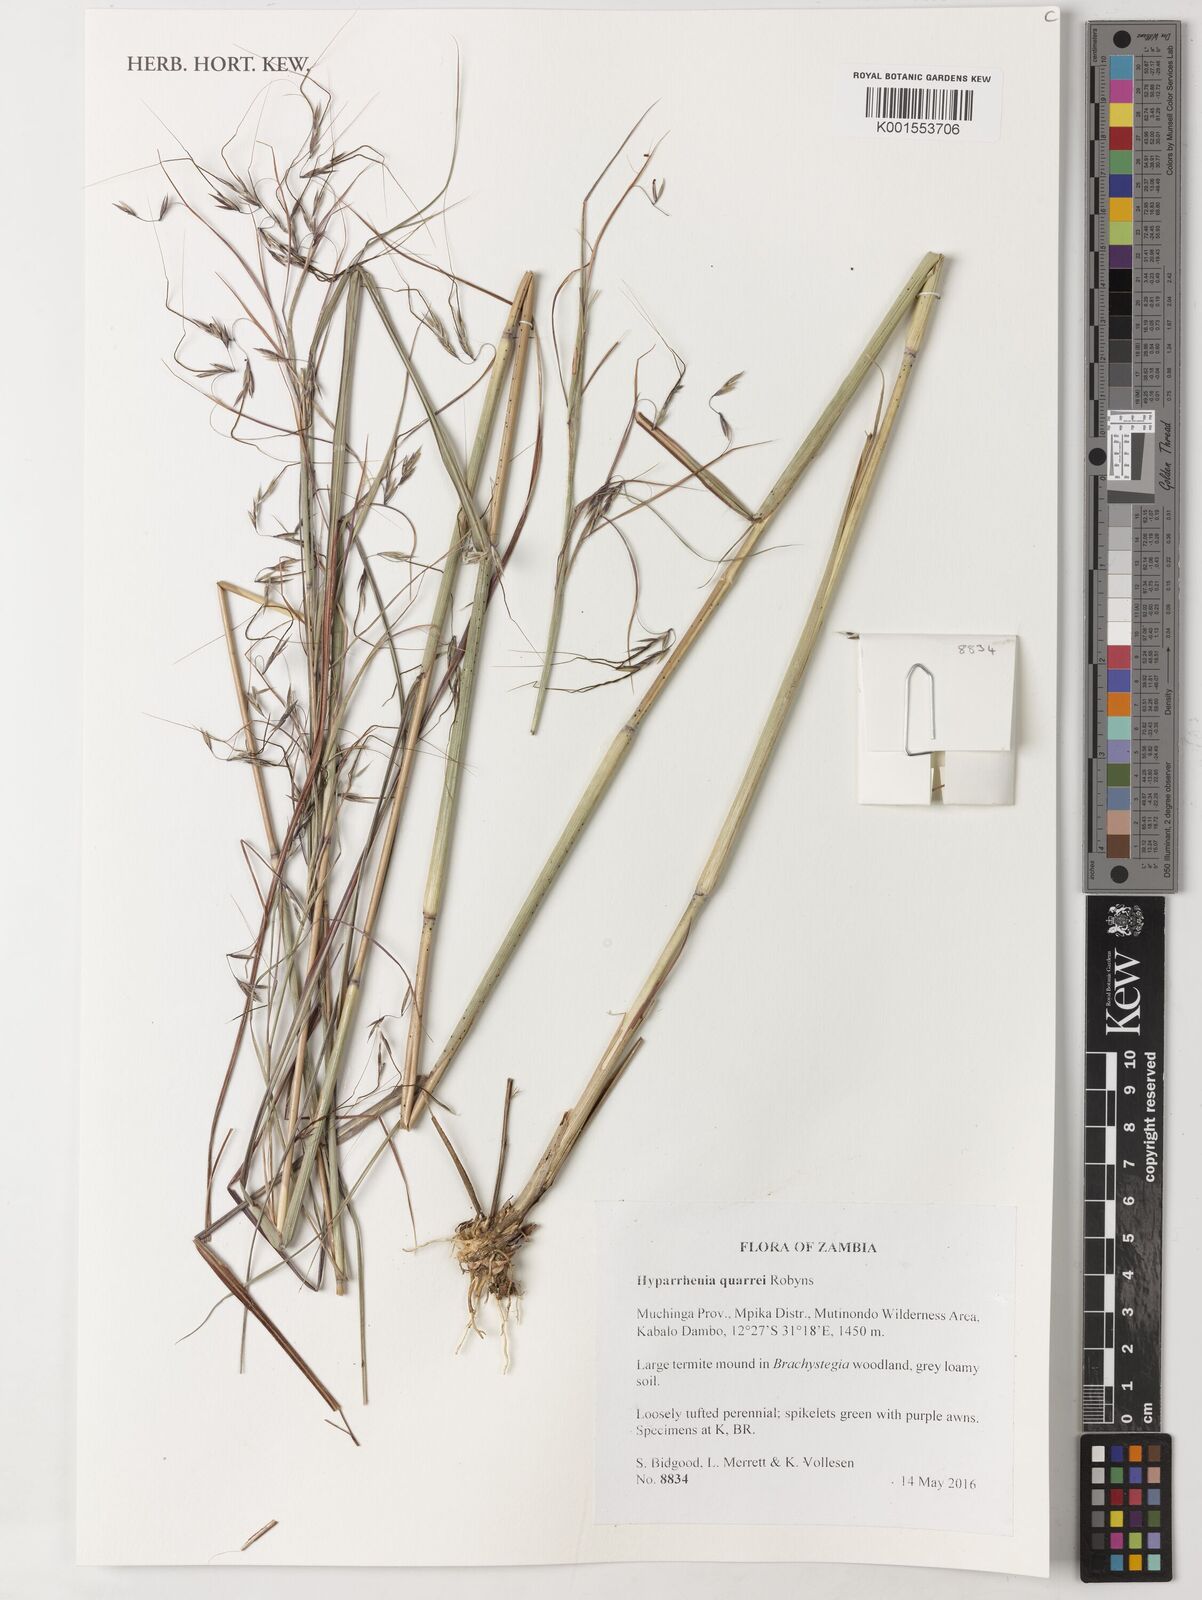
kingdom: Plantae
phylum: Tracheophyta
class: Liliopsida
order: Poales
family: Poaceae
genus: Hyparrhenia
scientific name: Hyparrhenia quarrei
